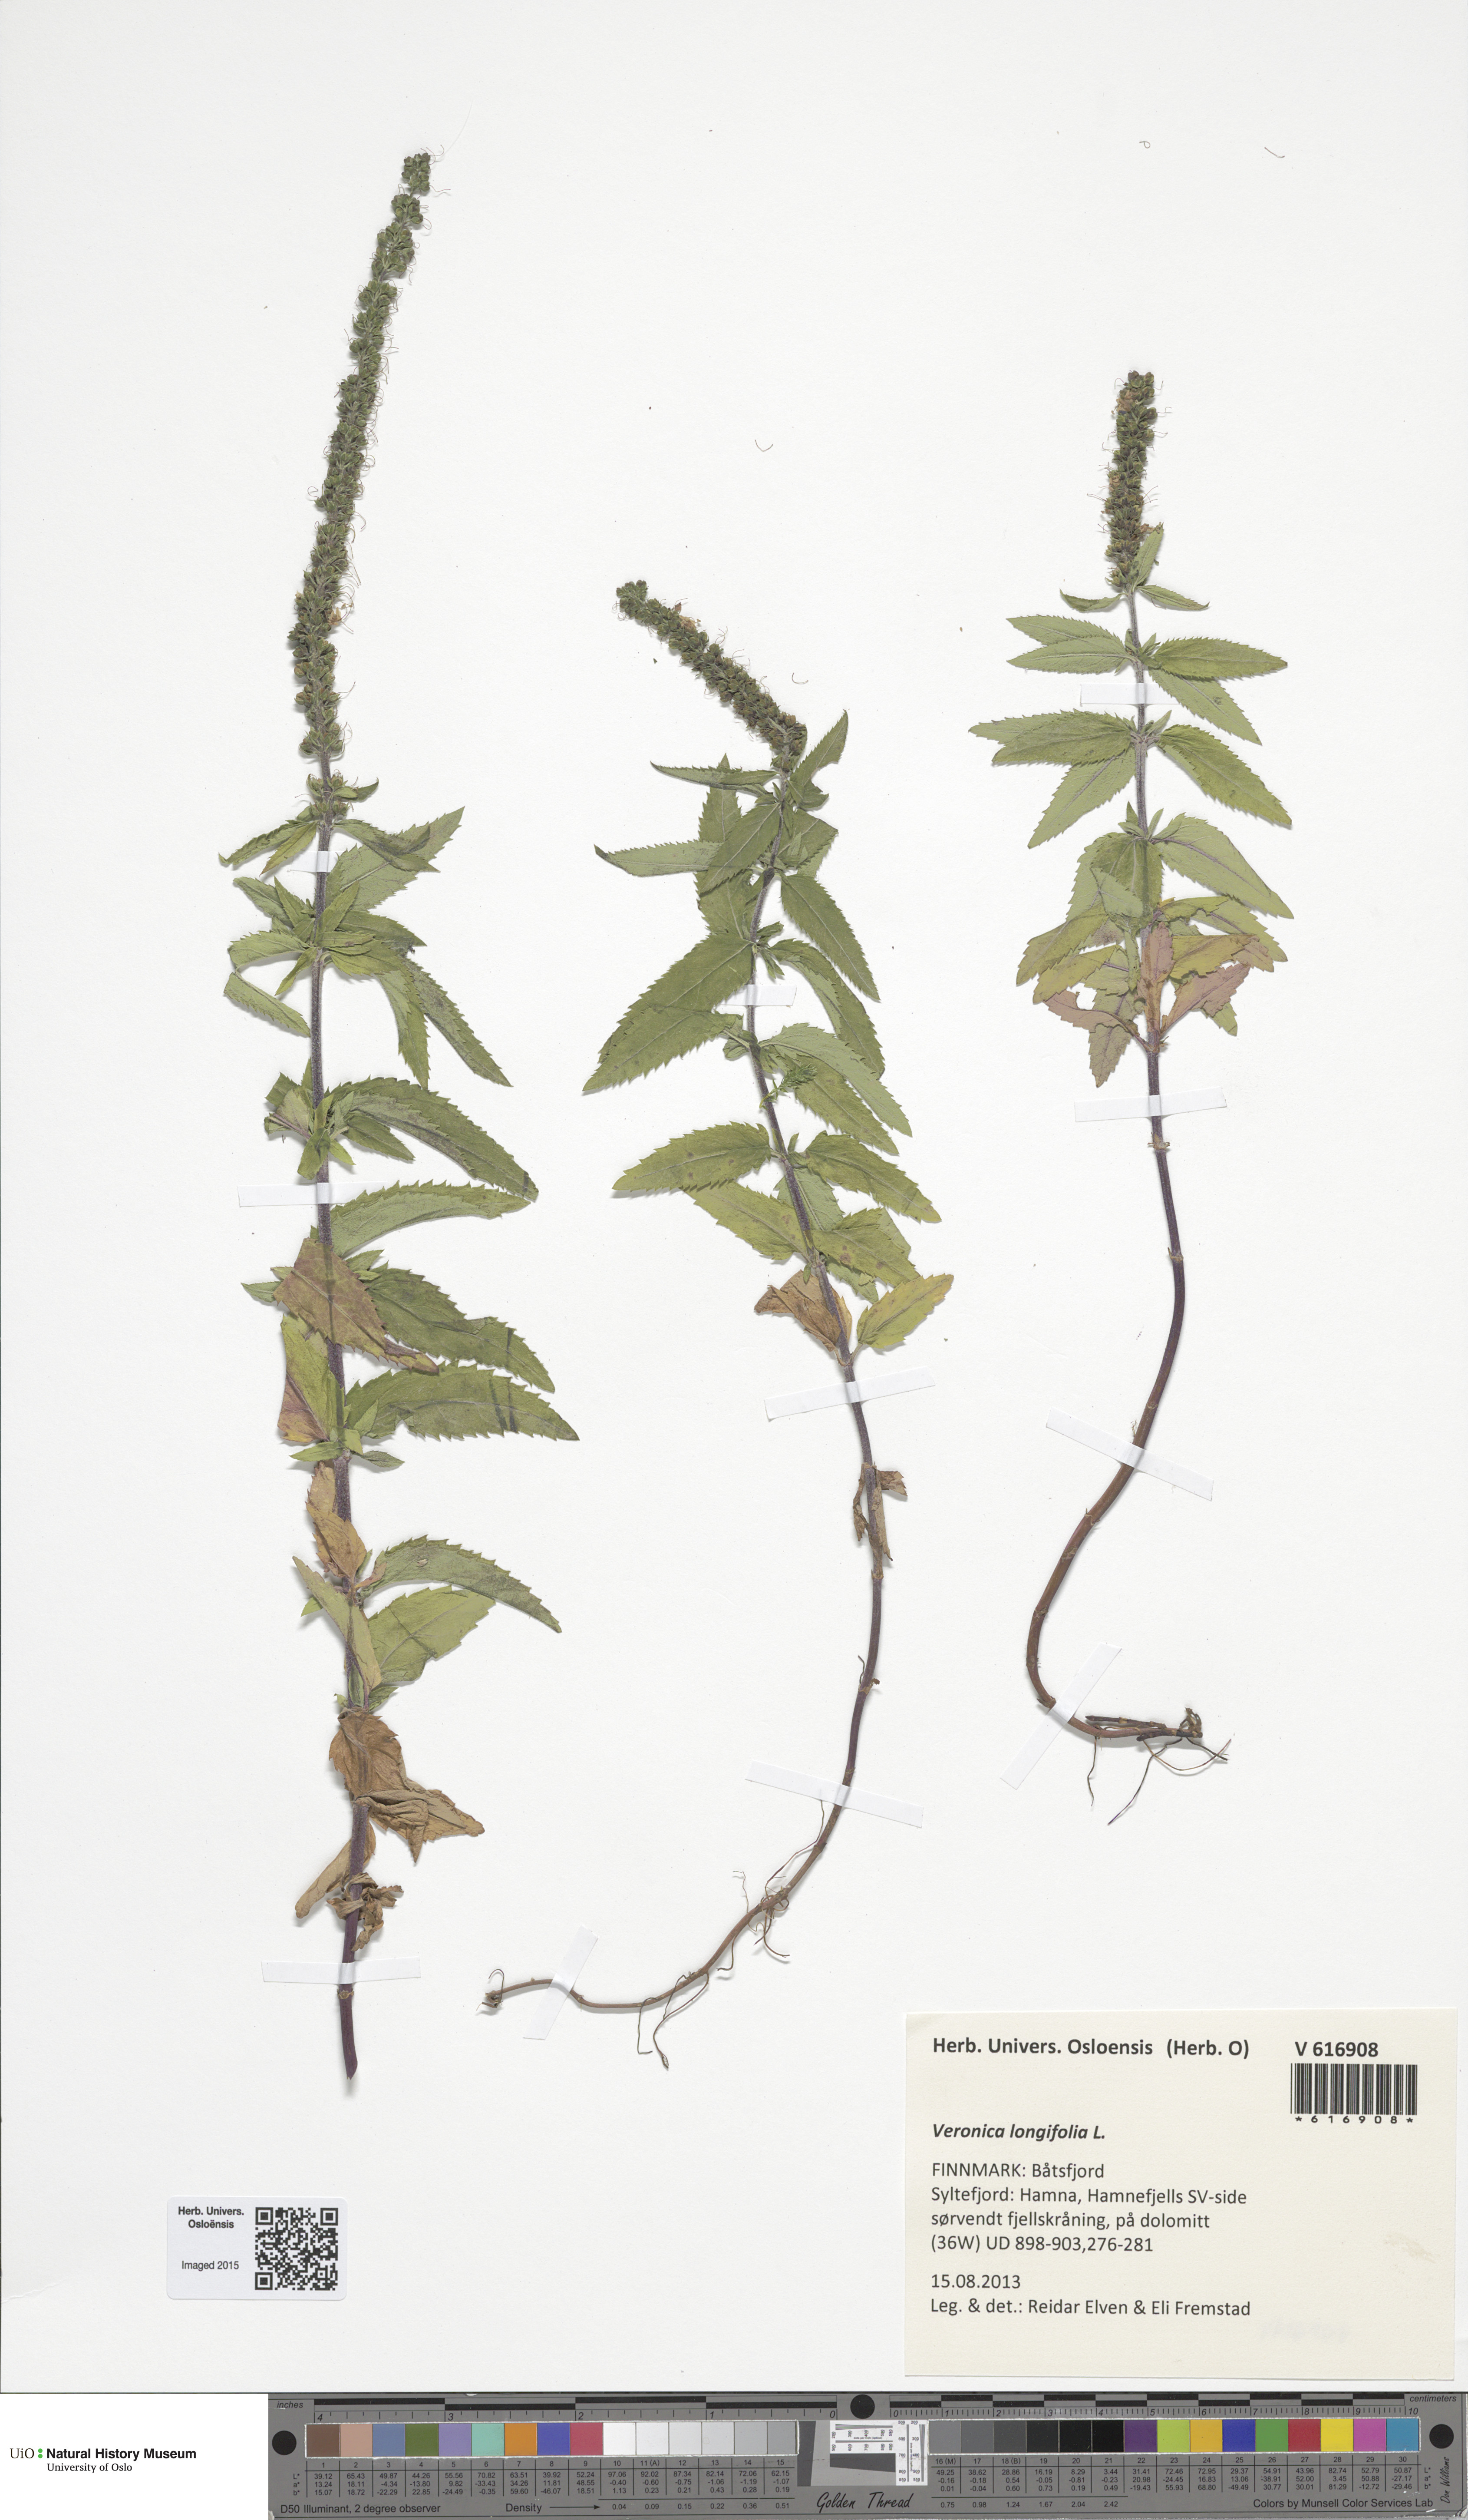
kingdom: Plantae
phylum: Tracheophyta
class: Magnoliopsida
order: Lamiales
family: Plantaginaceae
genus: Veronica
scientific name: Veronica longifolia
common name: Garden speedwell
